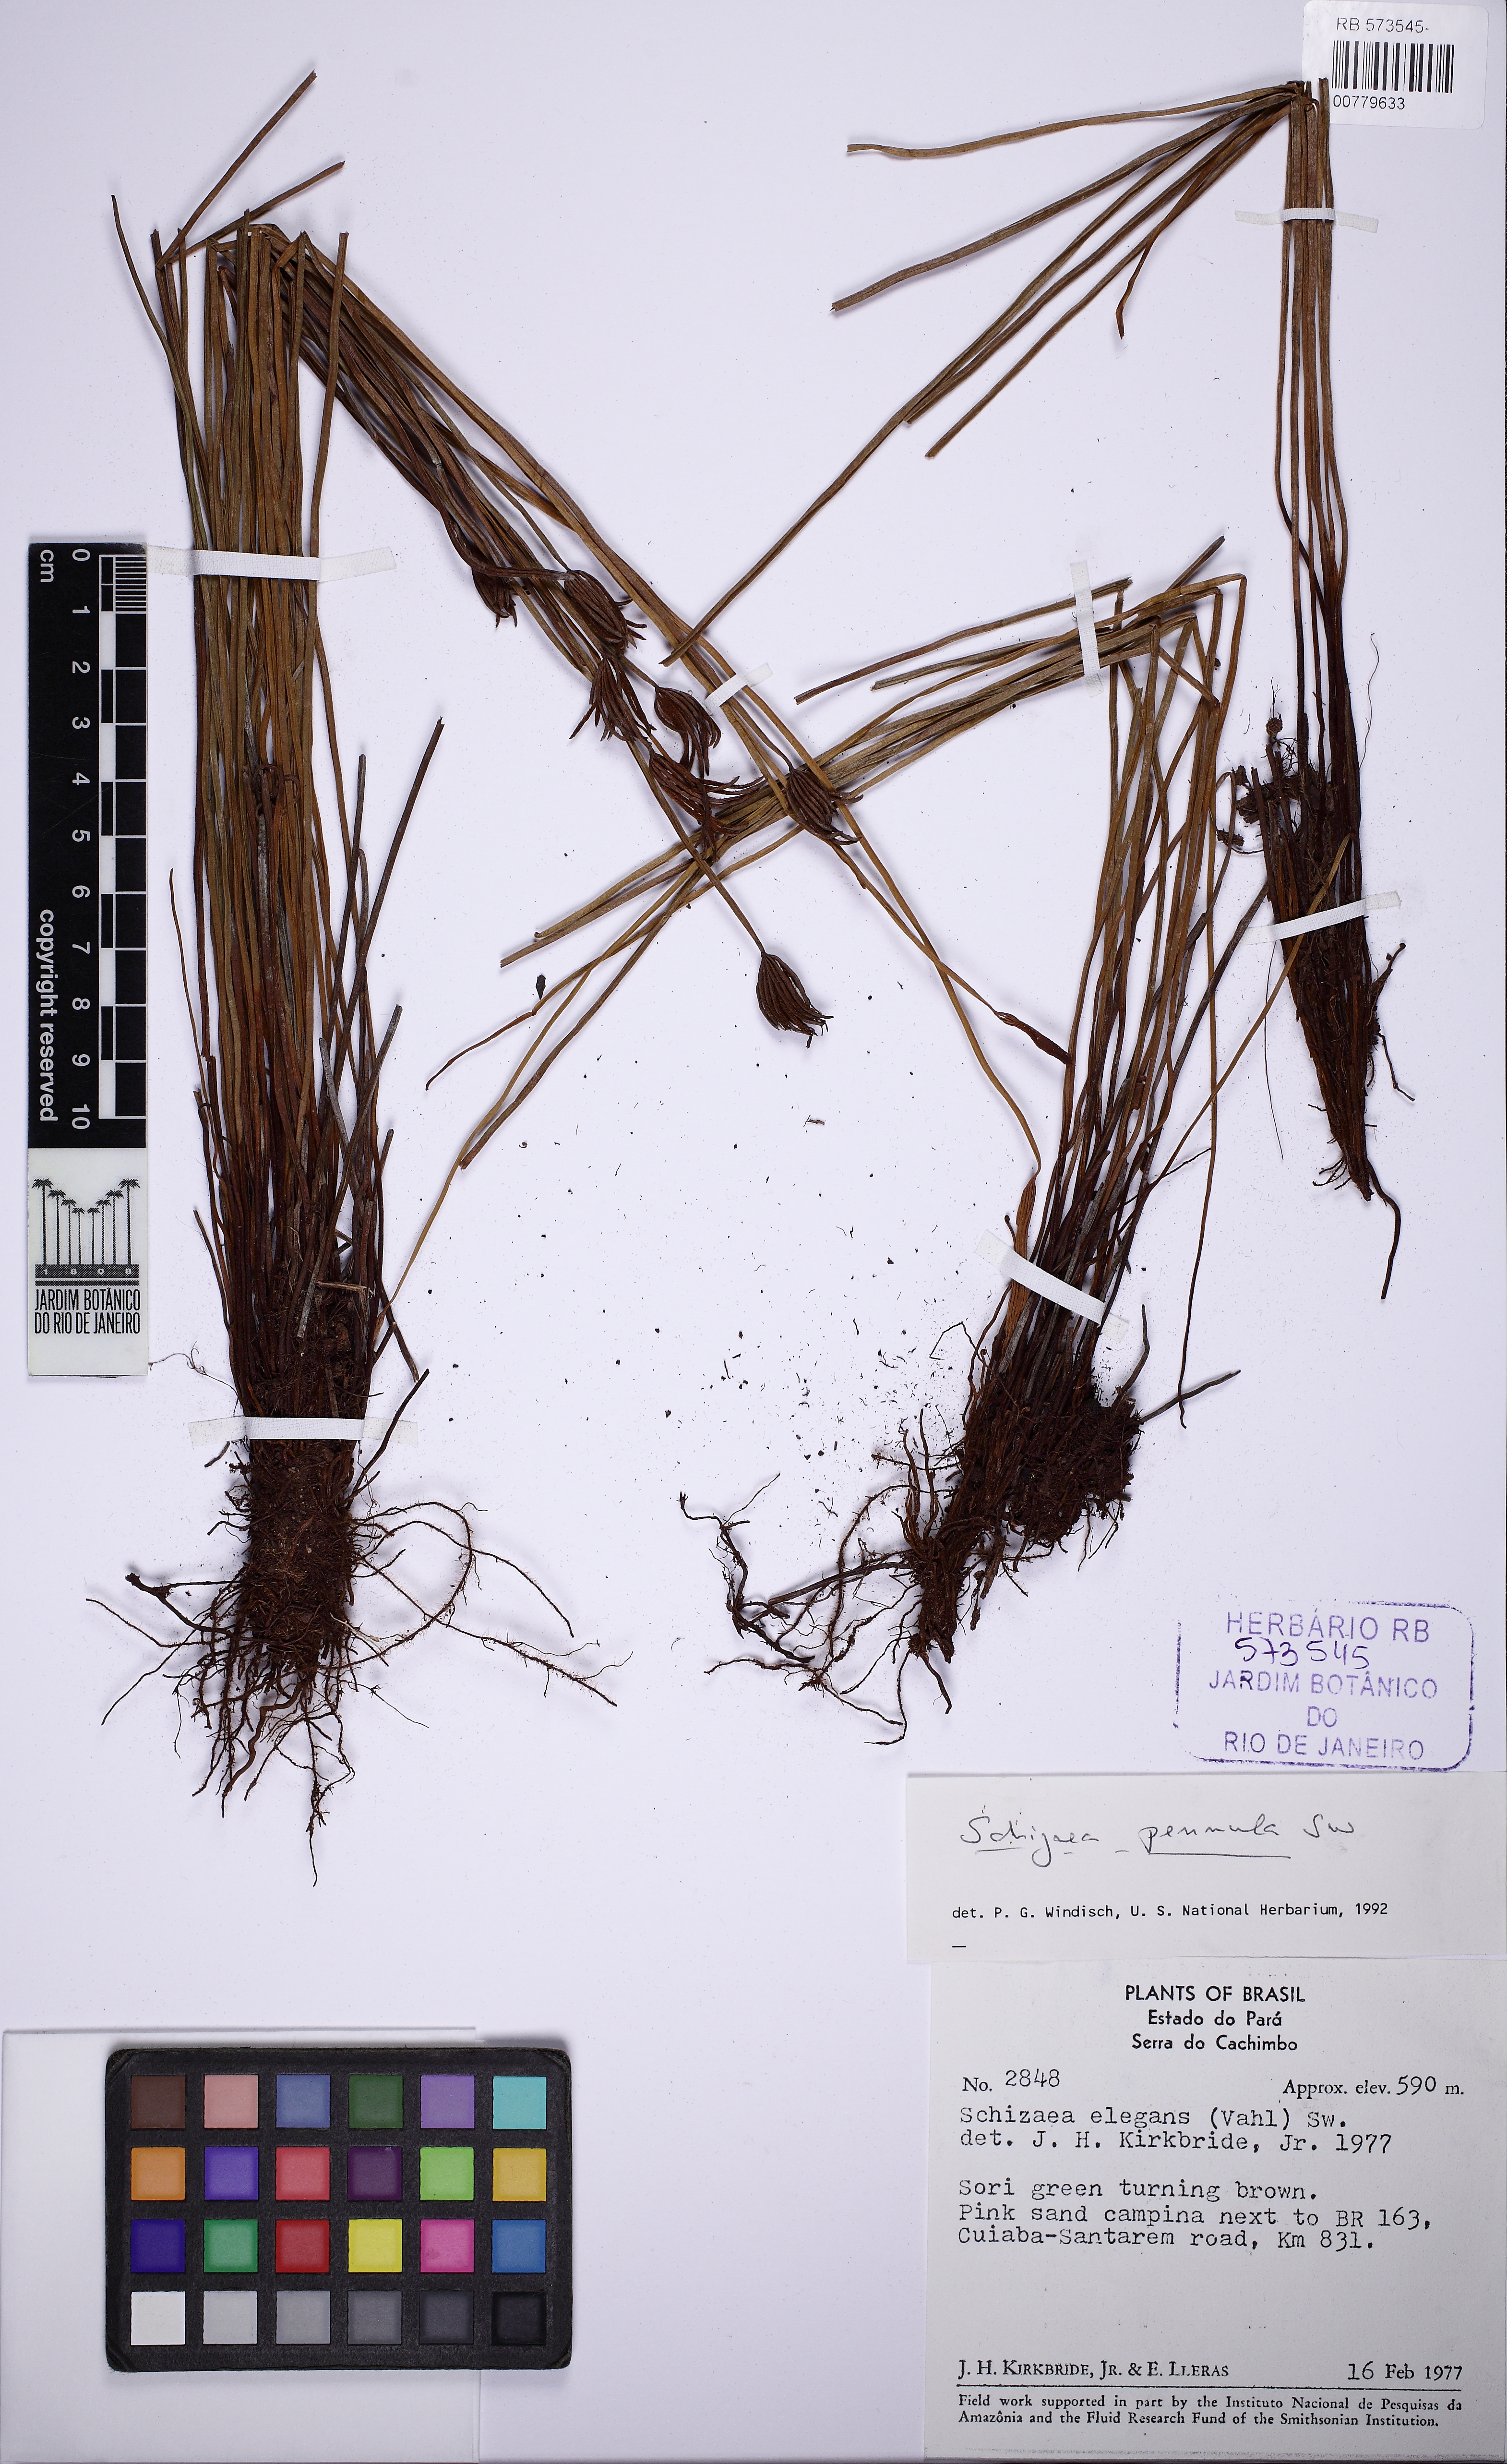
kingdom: Plantae
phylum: Tracheophyta
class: Polypodiopsida
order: Schizaeales
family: Schizaeaceae
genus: Actinostachys
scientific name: Actinostachys pennula
